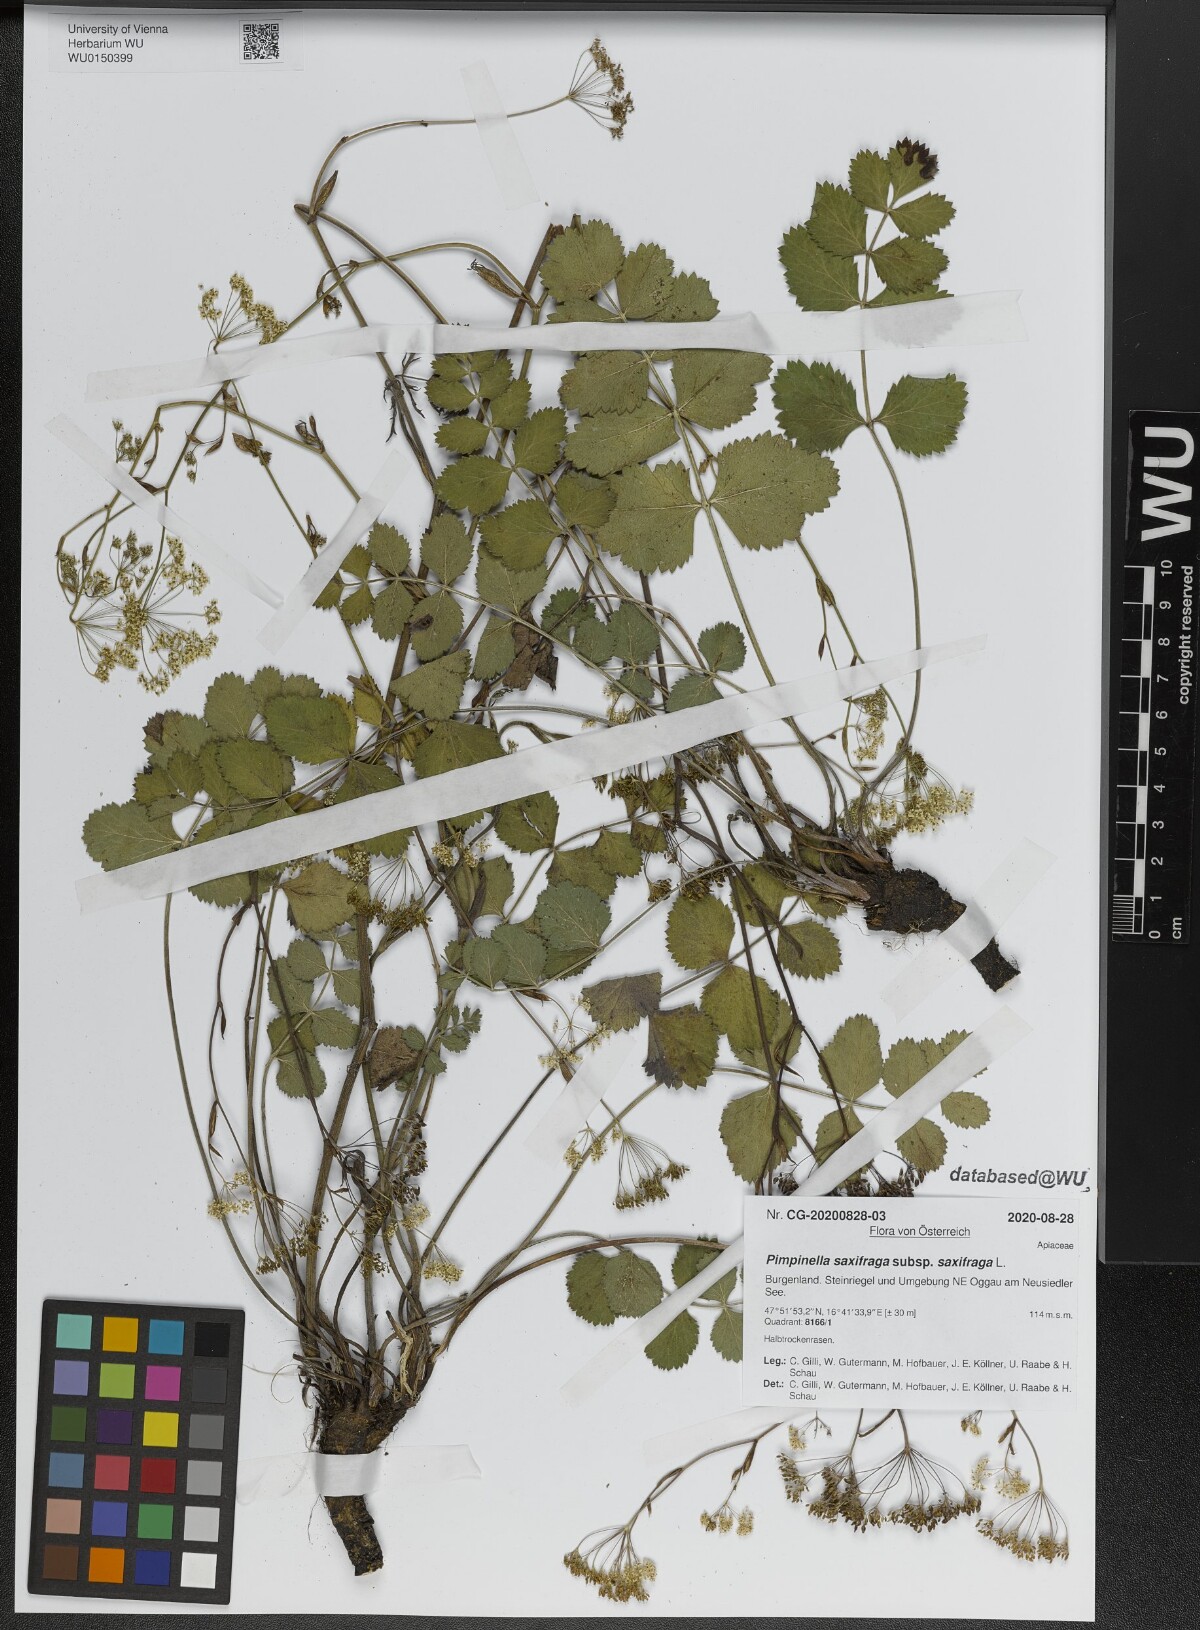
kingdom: Plantae
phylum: Tracheophyta
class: Magnoliopsida
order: Apiales
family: Apiaceae
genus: Pimpinella
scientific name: Pimpinella saxifraga
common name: Burnet-saxifrage
